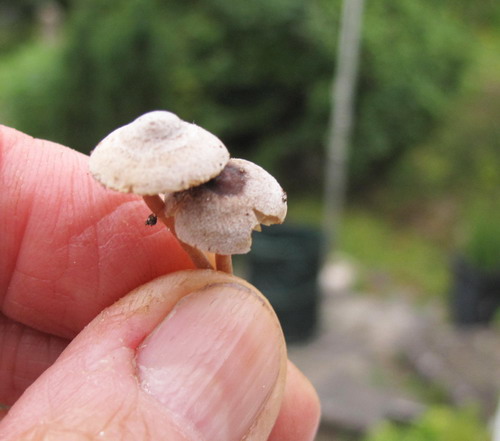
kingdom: Fungi
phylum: Basidiomycota
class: Agaricomycetes
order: Agaricales
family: Inocybaceae
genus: Inocybe
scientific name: Inocybe petiginosa
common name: liden trævlhat
